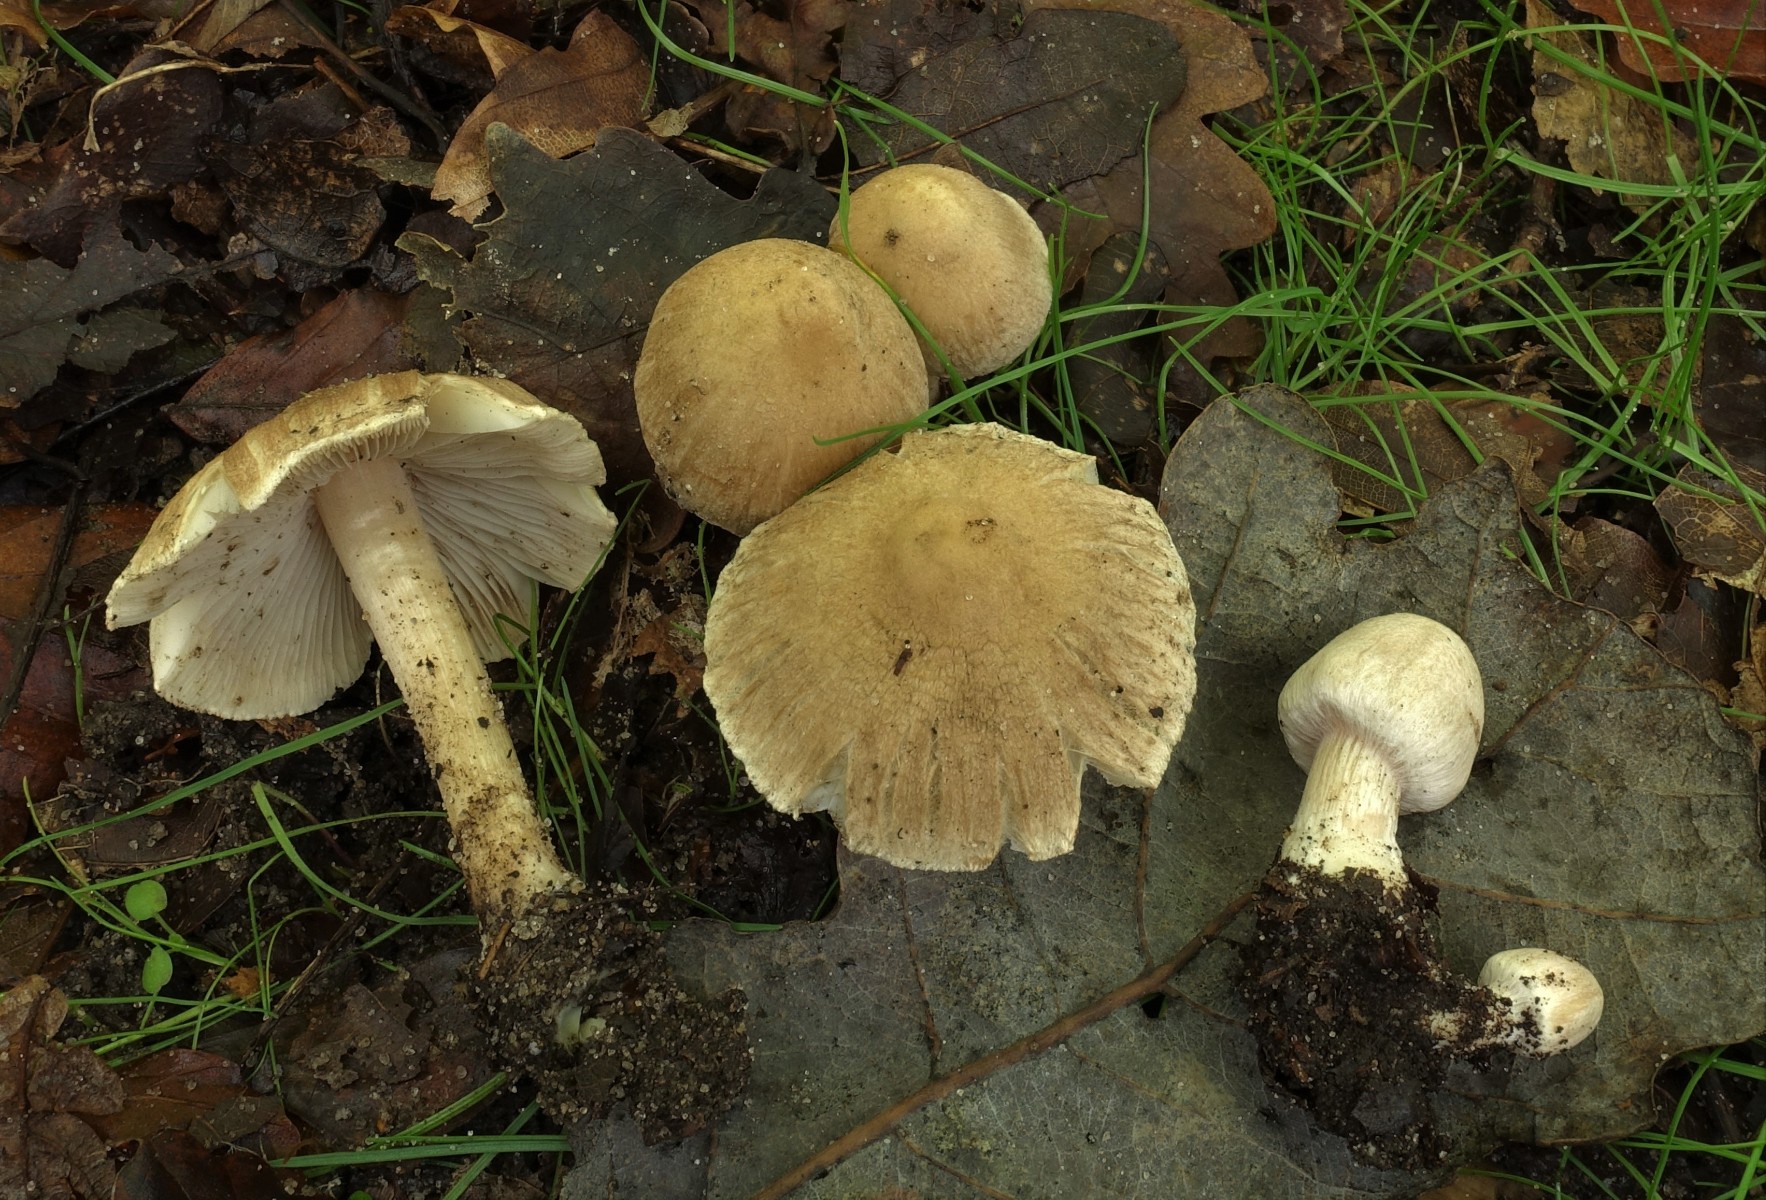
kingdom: Fungi
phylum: Basidiomycota
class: Agaricomycetes
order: Agaricales
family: Inocybaceae
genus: Inocybe
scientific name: Inocybe
